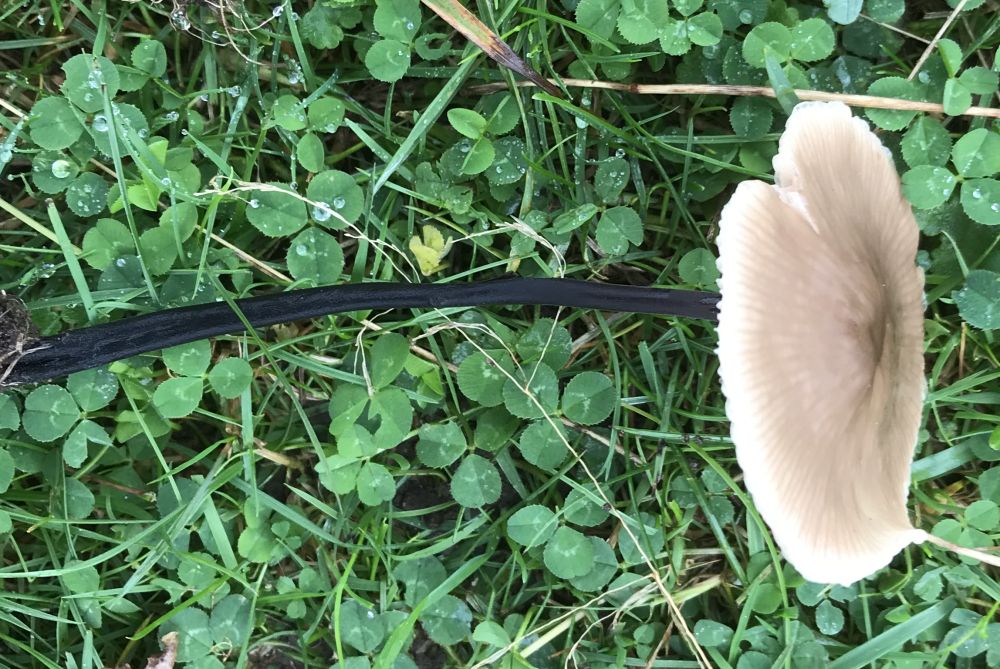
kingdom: Fungi
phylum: Basidiomycota
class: Agaricomycetes
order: Agaricales
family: Omphalotaceae
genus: Mycetinis
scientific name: Mycetinis alliaceus
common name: stor løghat
